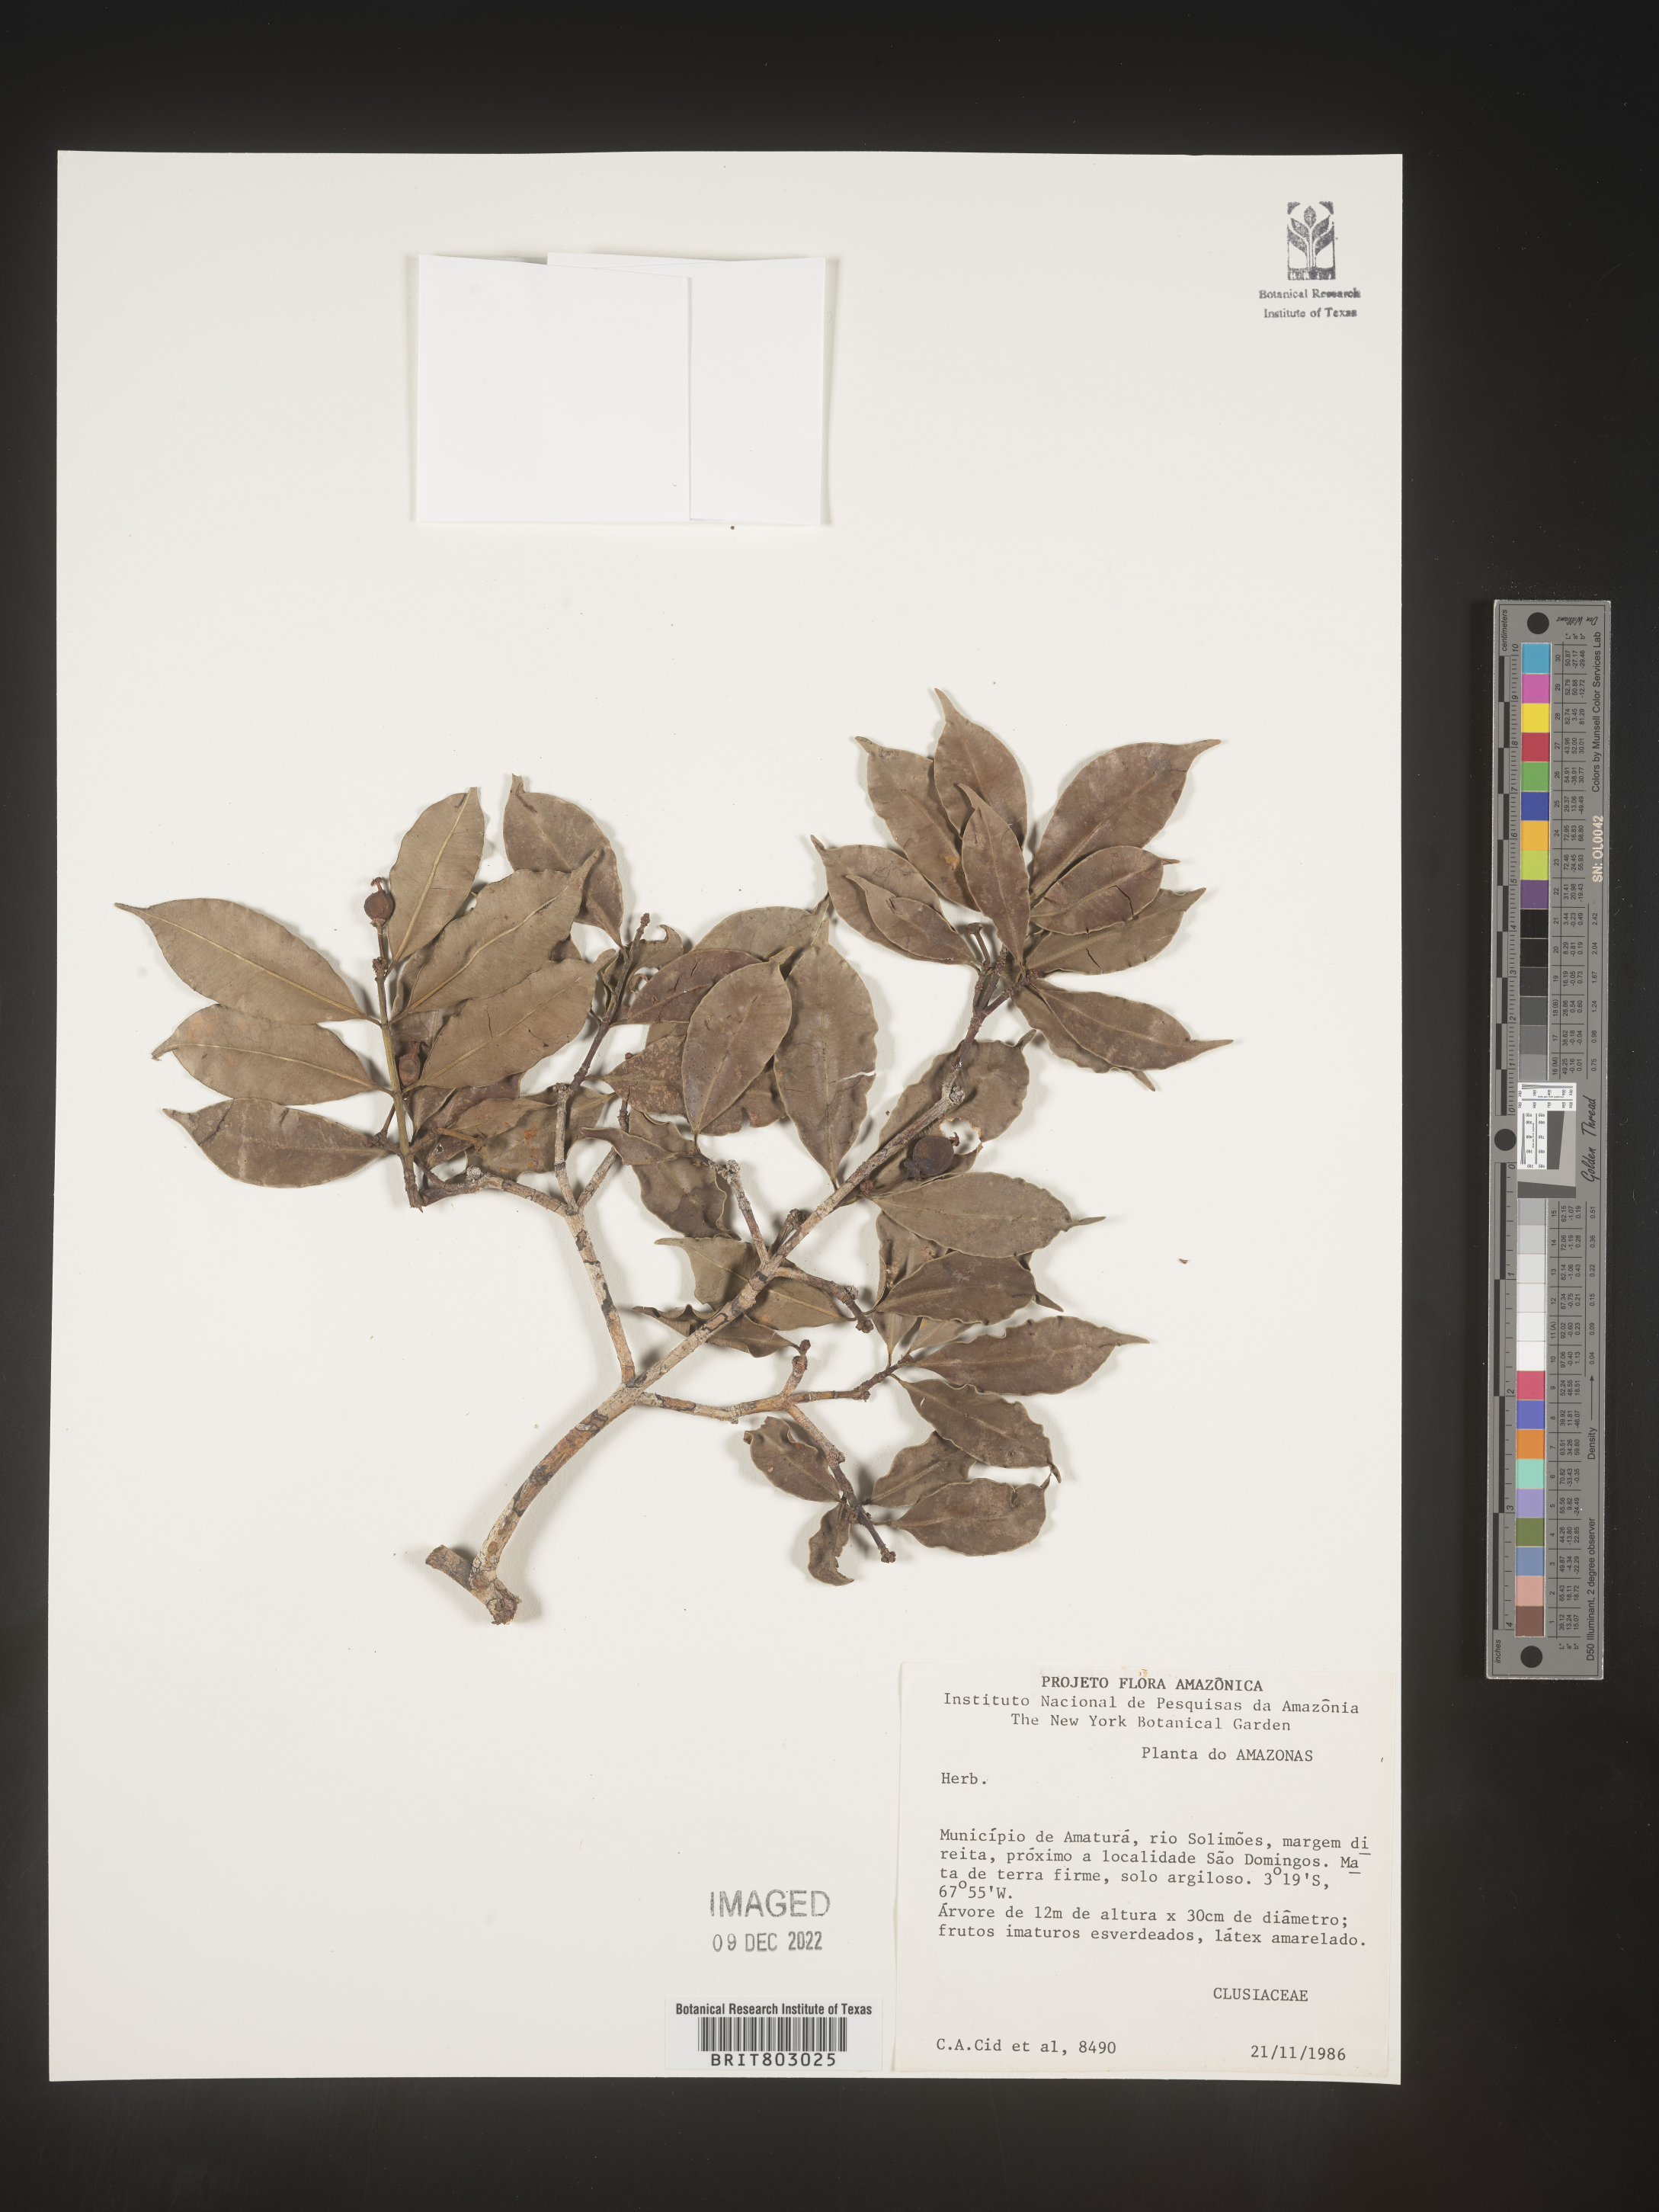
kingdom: Plantae
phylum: Tracheophyta
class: Magnoliopsida
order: Malpighiales
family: Clusiaceae
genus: Moronobea
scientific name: Moronobea
